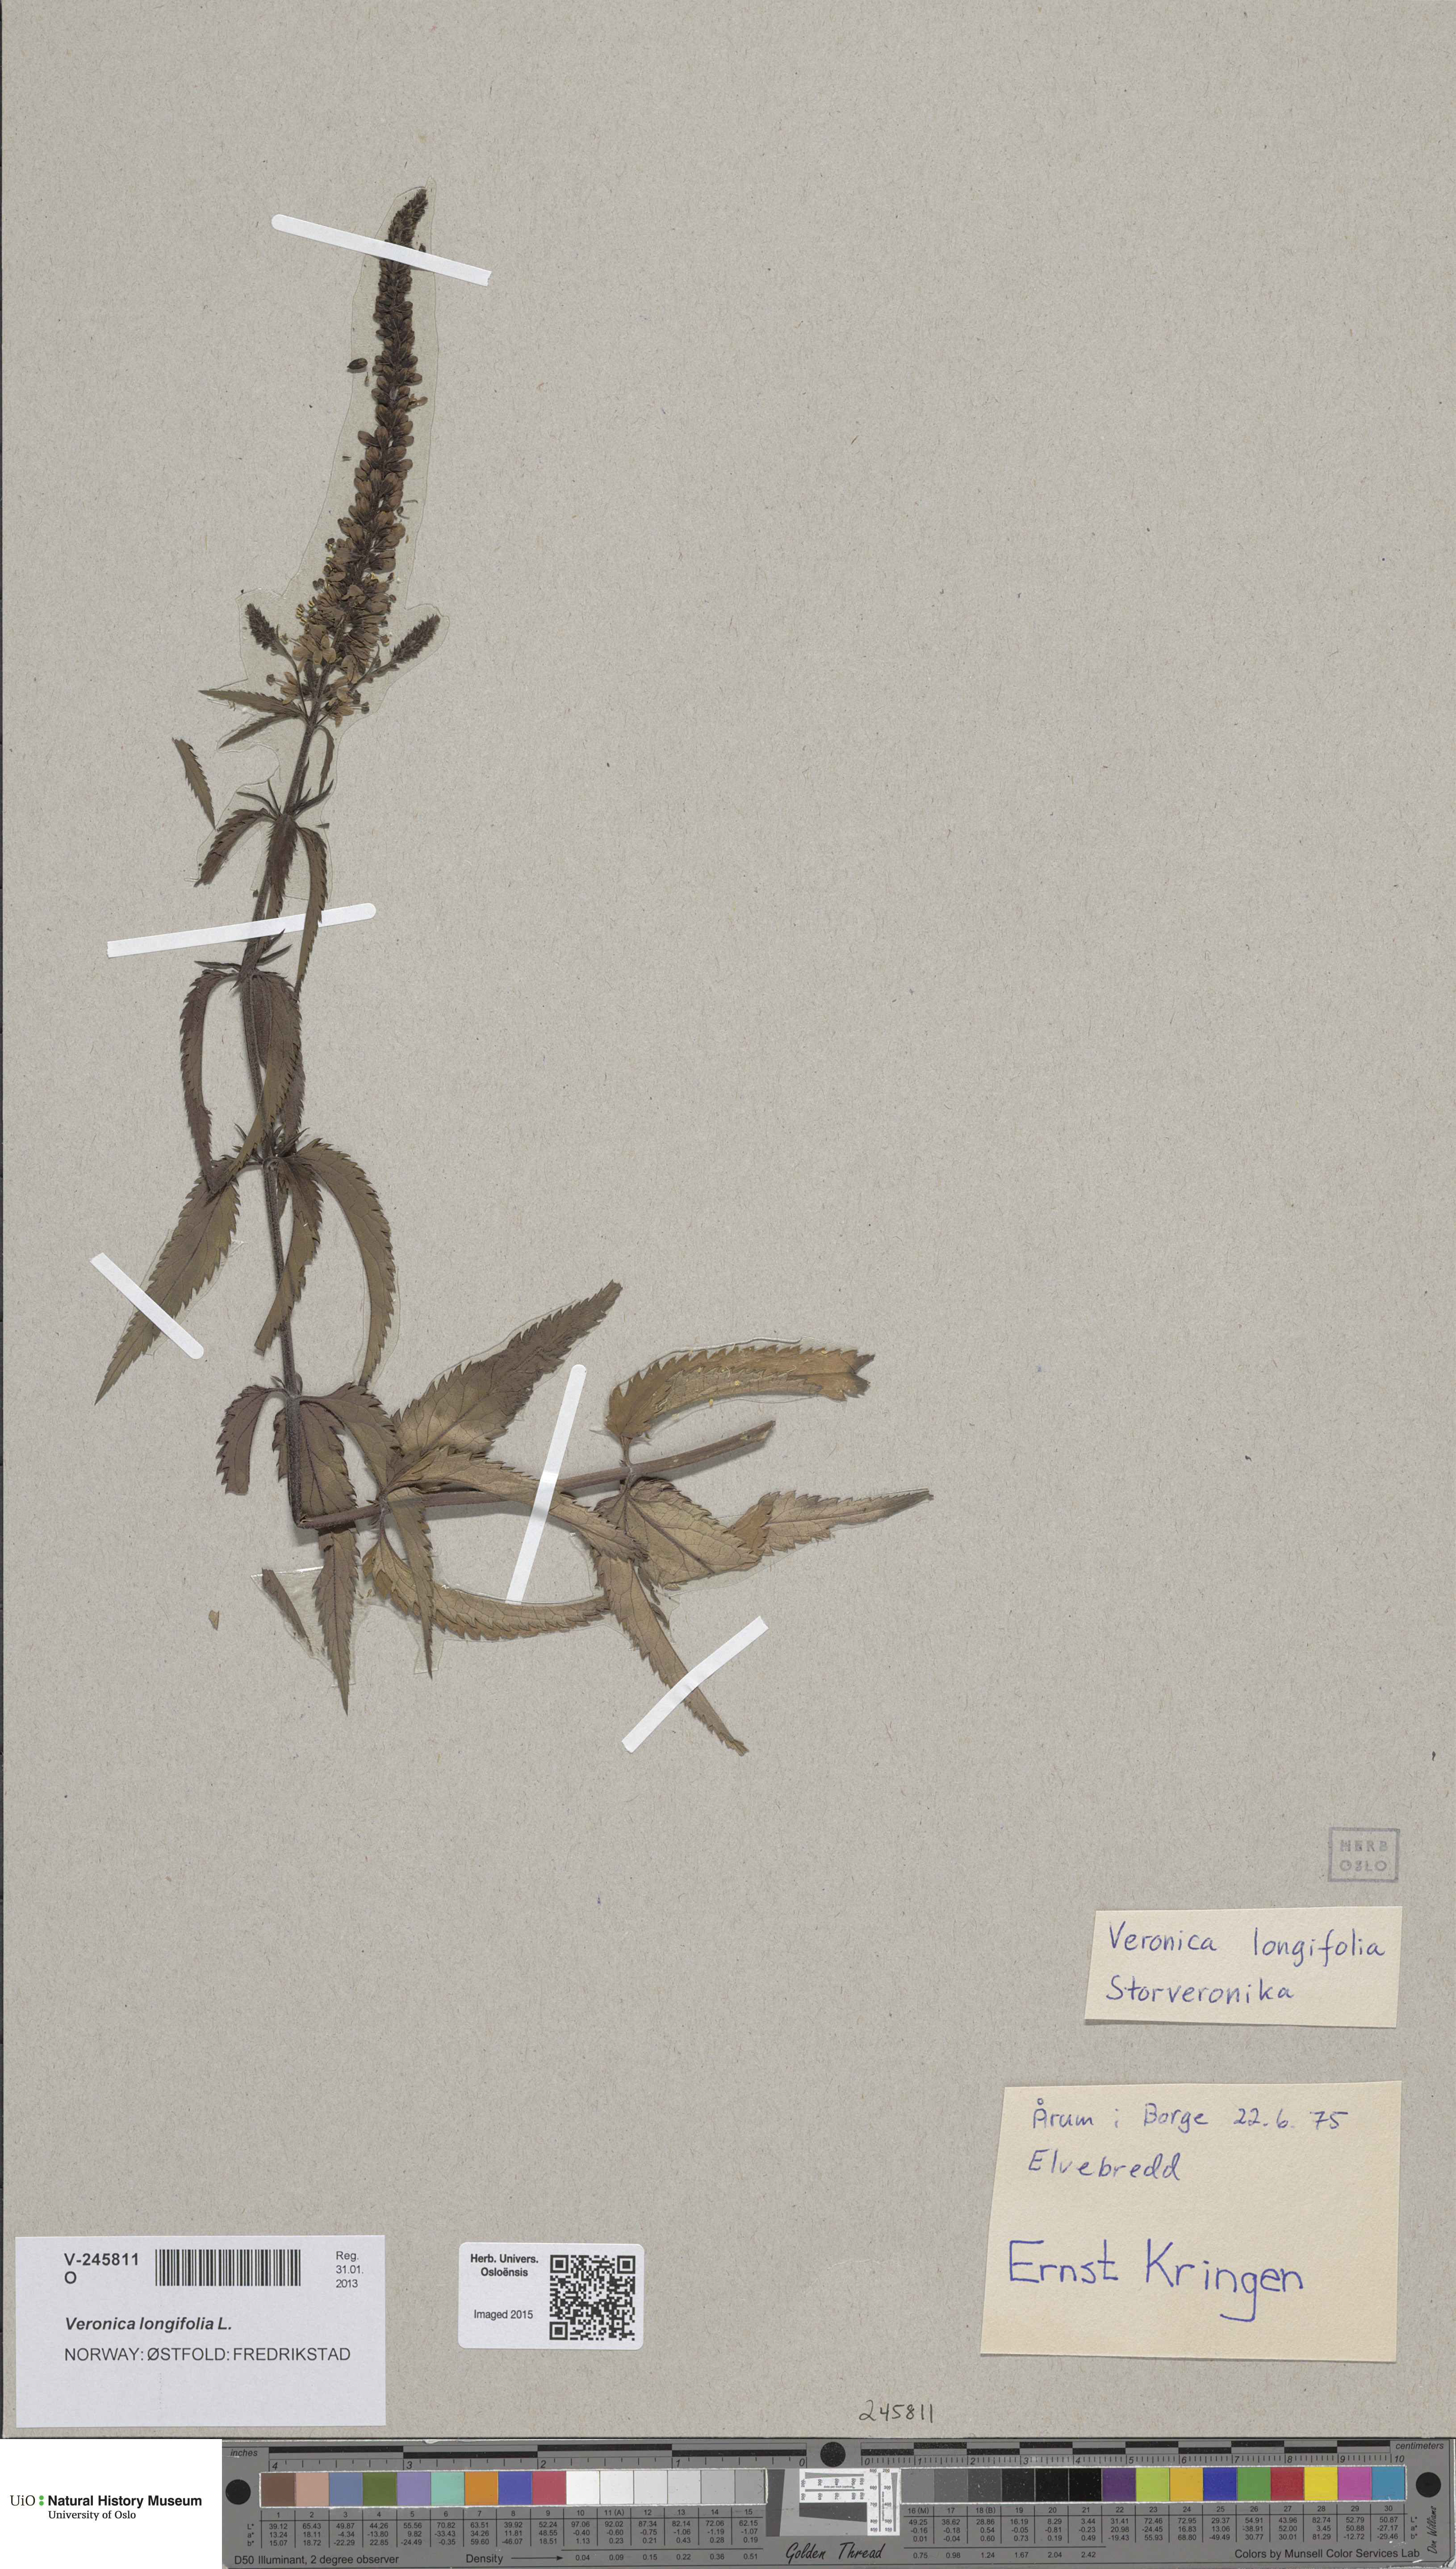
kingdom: Plantae
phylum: Tracheophyta
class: Magnoliopsida
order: Lamiales
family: Plantaginaceae
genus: Veronica
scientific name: Veronica longifolia
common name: Garden speedwell
